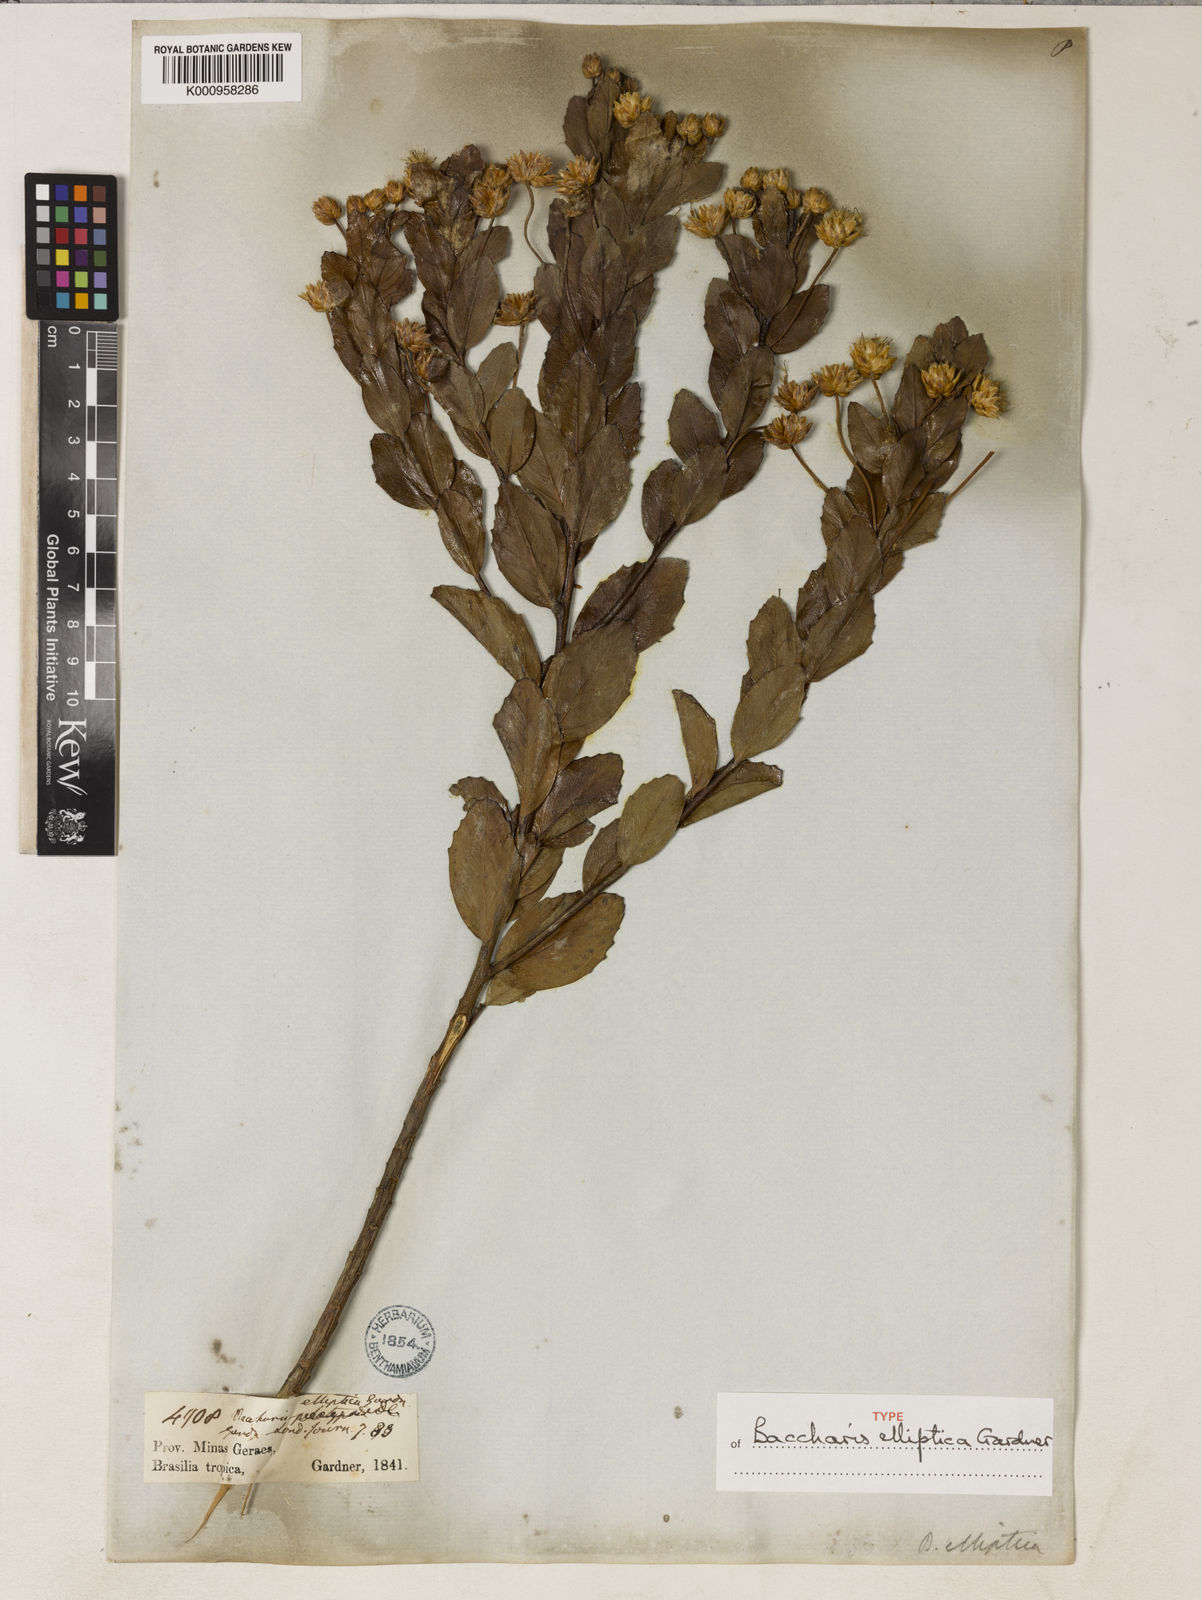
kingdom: Plantae
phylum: Tracheophyta
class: Magnoliopsida
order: Asterales
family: Asteraceae
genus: Baccharis
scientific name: Baccharis elliptica
